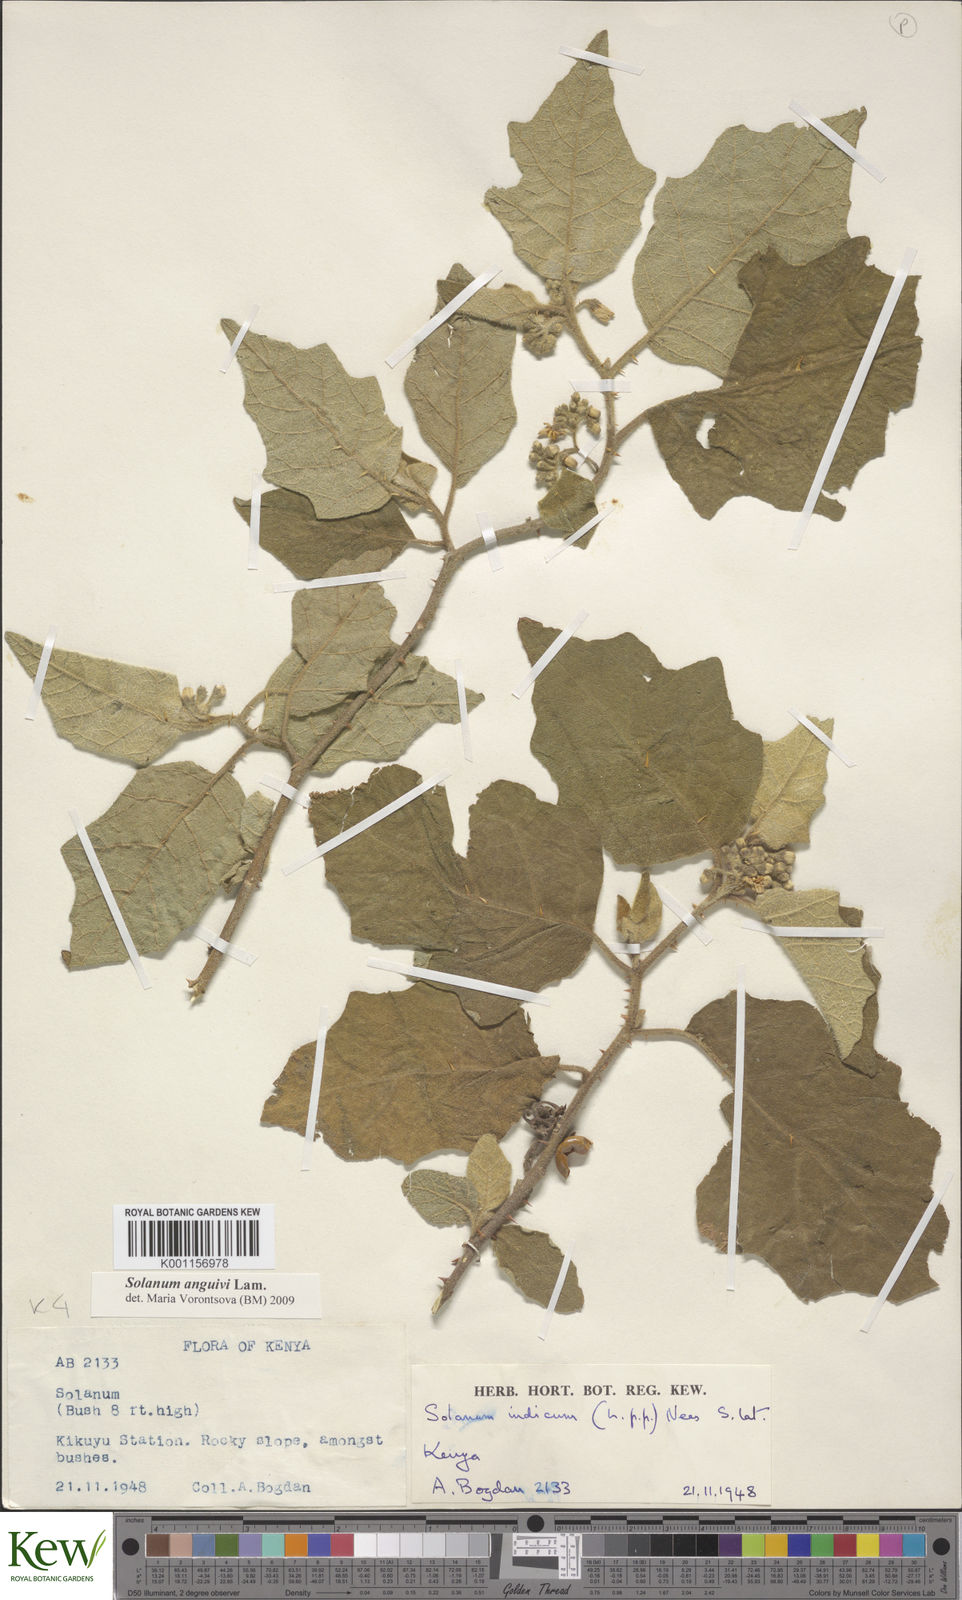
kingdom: Plantae
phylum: Tracheophyta
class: Magnoliopsida
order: Solanales
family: Solanaceae
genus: Solanum
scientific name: Solanum anguivi
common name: Forest bitterberry
